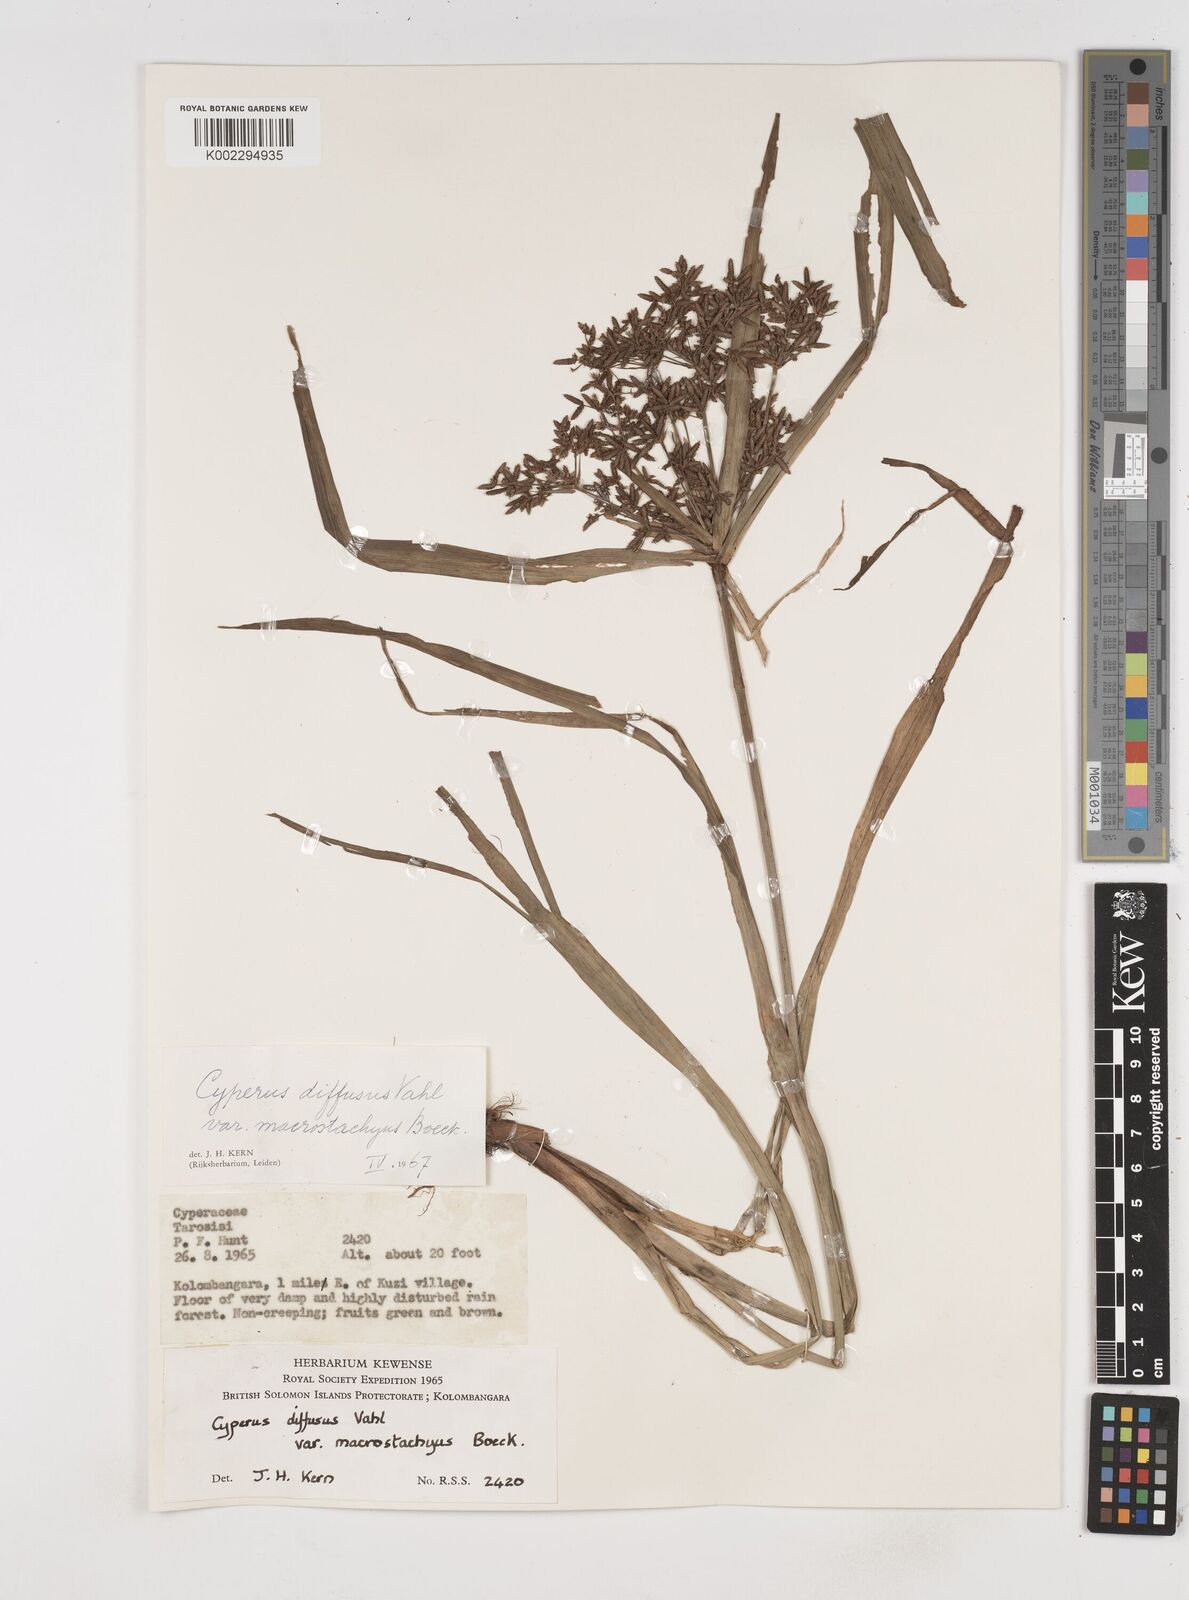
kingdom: Plantae
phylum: Tracheophyta
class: Liliopsida
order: Poales
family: Cyperaceae
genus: Cyperus
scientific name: Cyperus diffusus
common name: Dwarf umbrella grass
